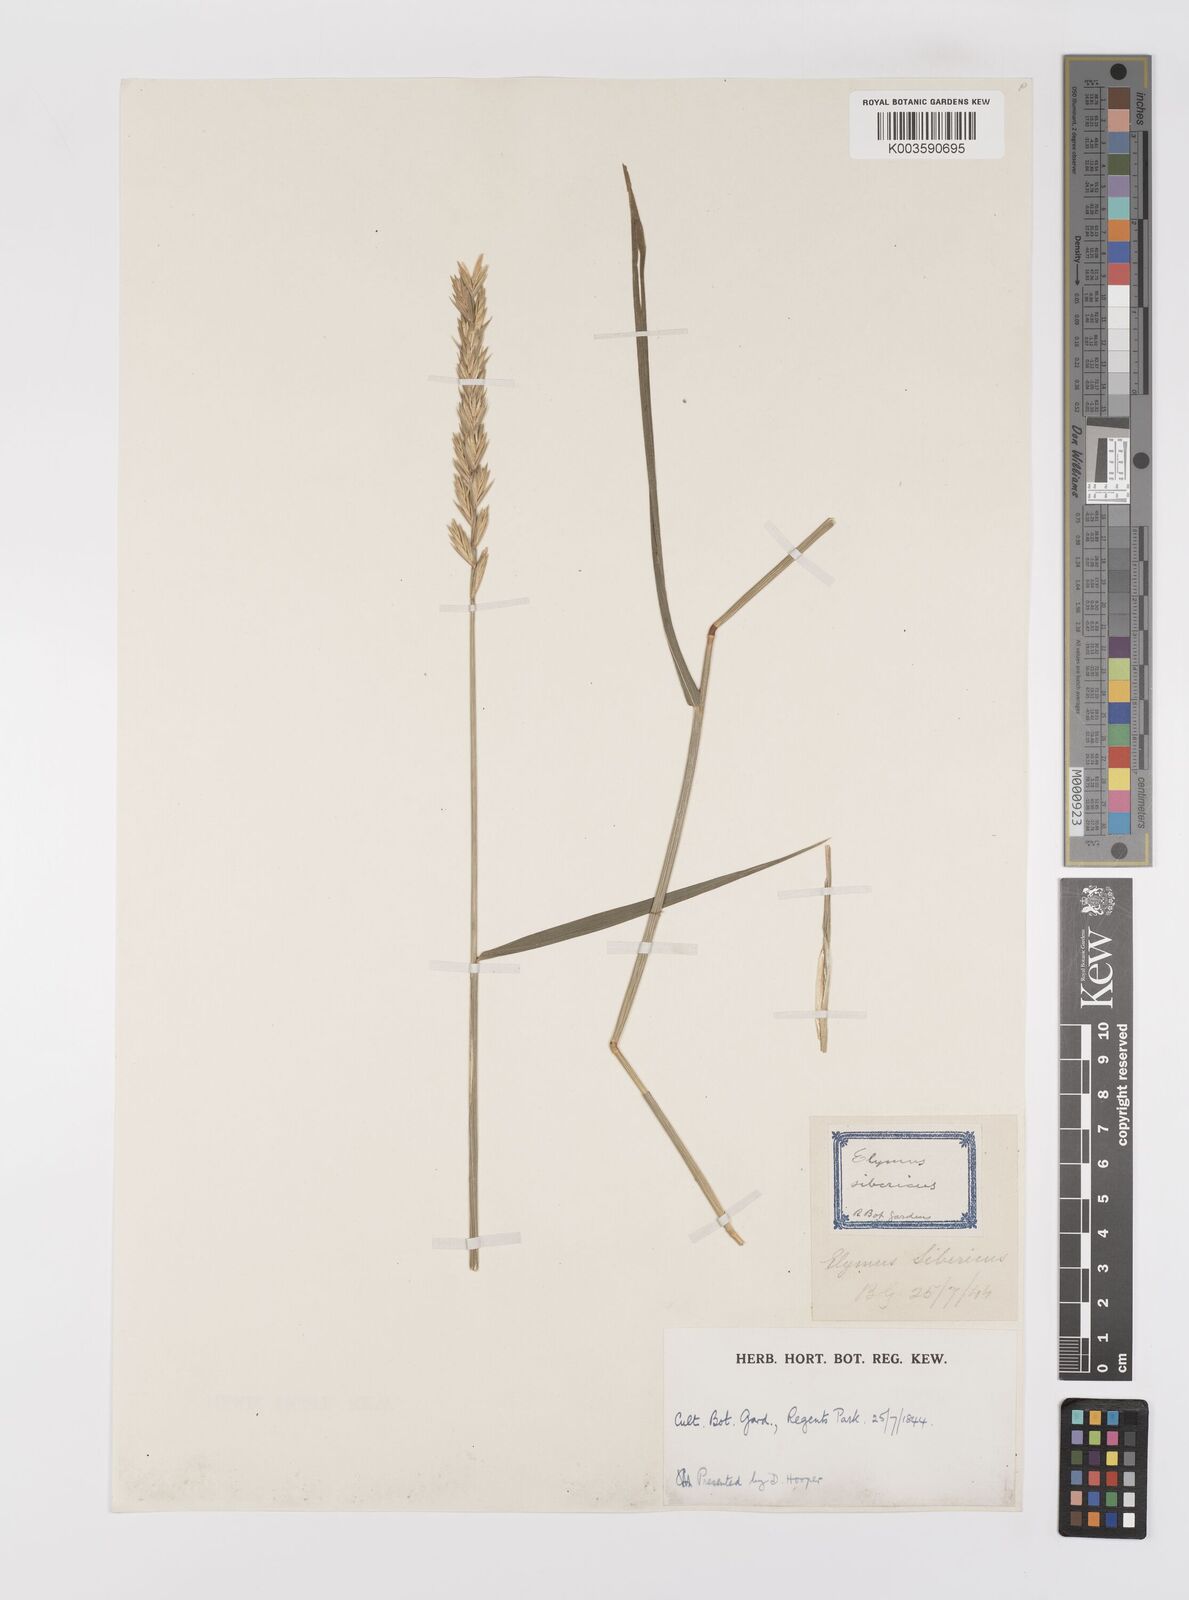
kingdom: Plantae
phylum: Tracheophyta
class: Liliopsida
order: Poales
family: Poaceae
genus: Elymus
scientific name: Elymus repens
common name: Quackgrass
